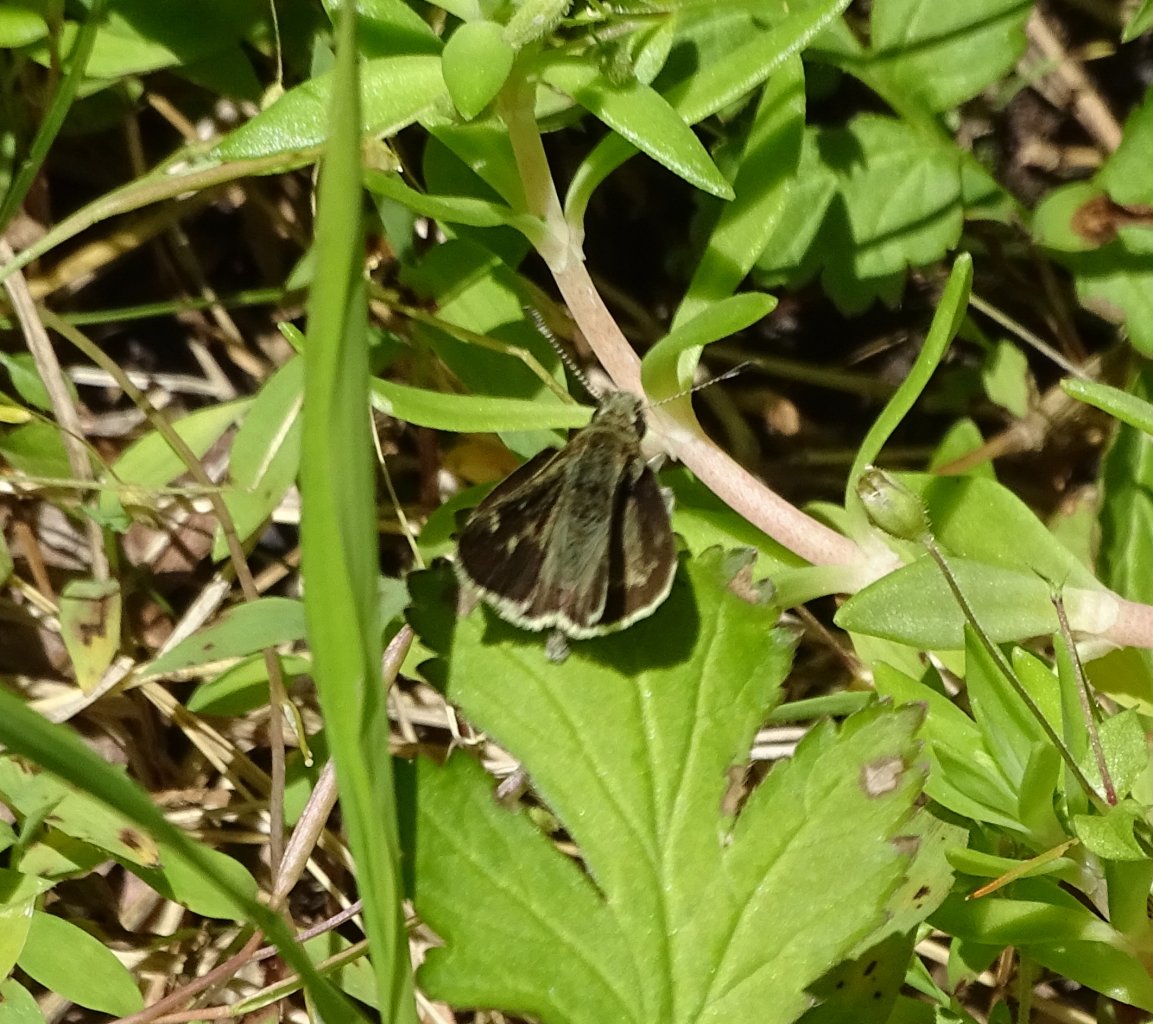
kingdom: Animalia
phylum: Arthropoda
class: Insecta
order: Lepidoptera
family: Hesperiidae
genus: Mastor
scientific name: Mastor hegon
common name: Pepper and Salt Skipper
